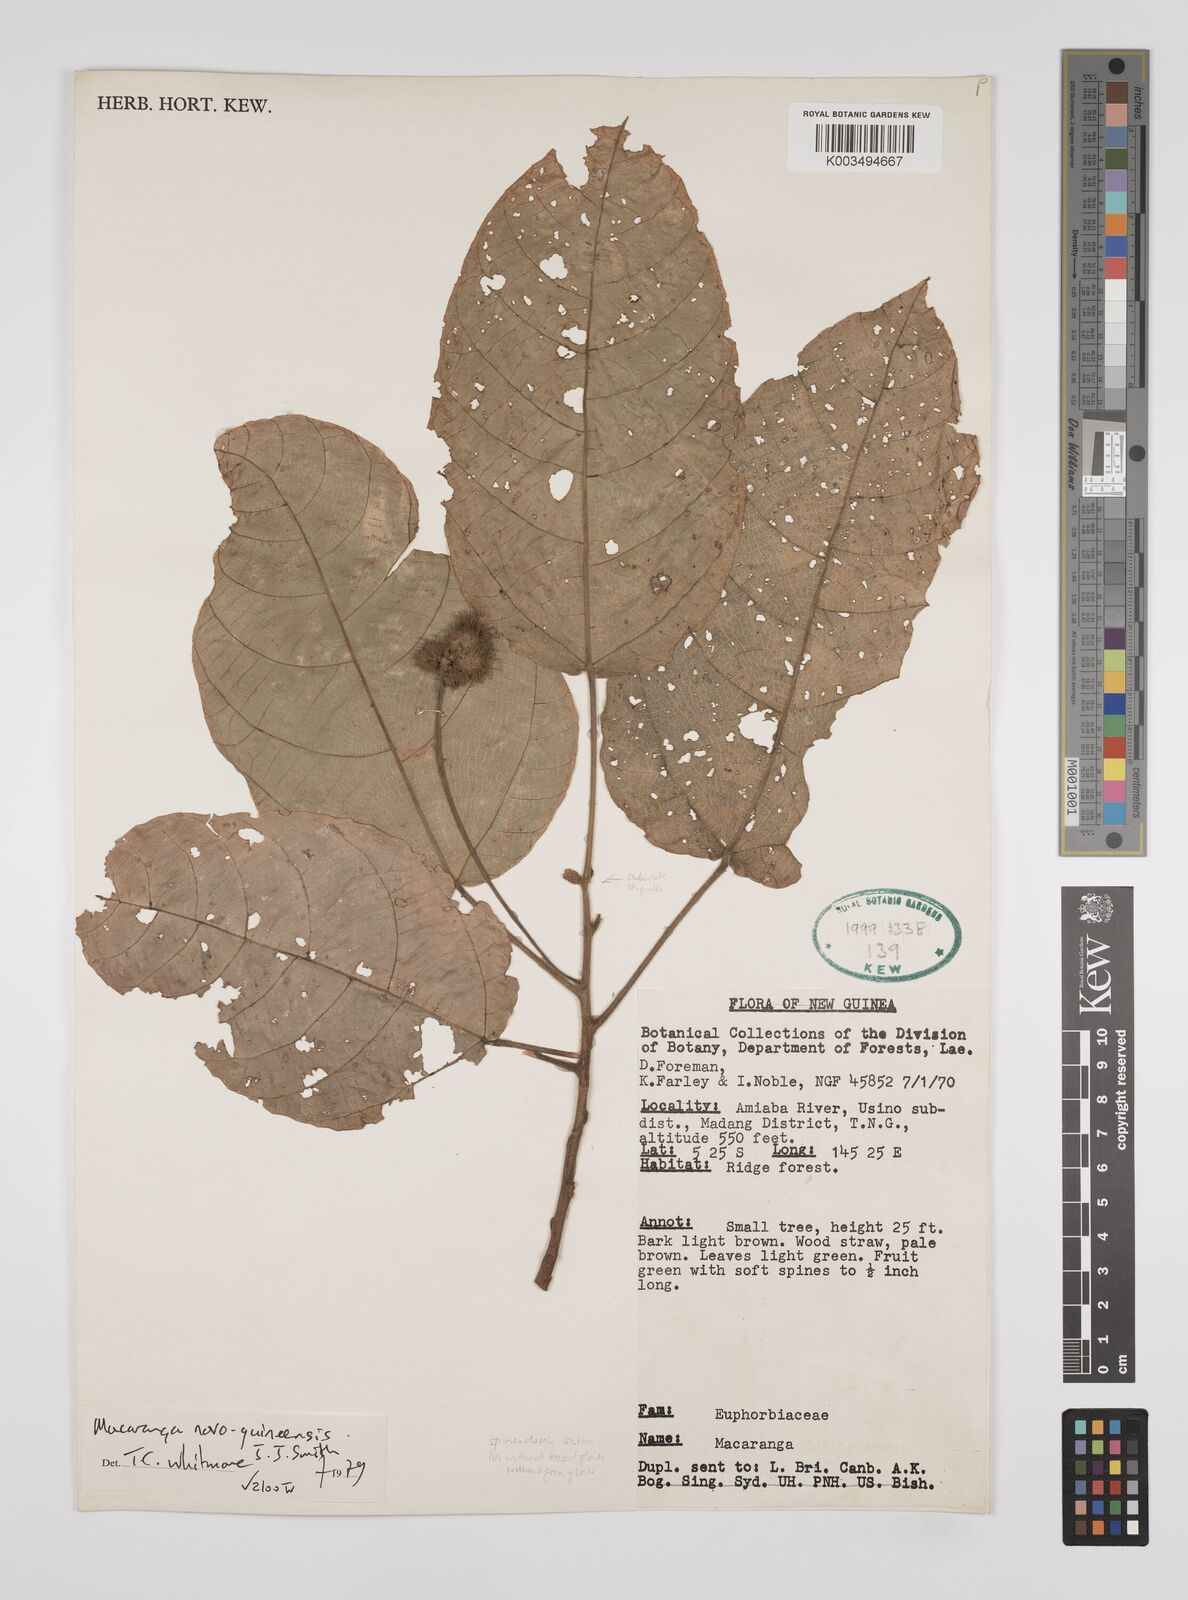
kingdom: Plantae
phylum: Tracheophyta
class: Magnoliopsida
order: Malpighiales
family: Euphorbiaceae
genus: Macaranga
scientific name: Macaranga novoguineensis
